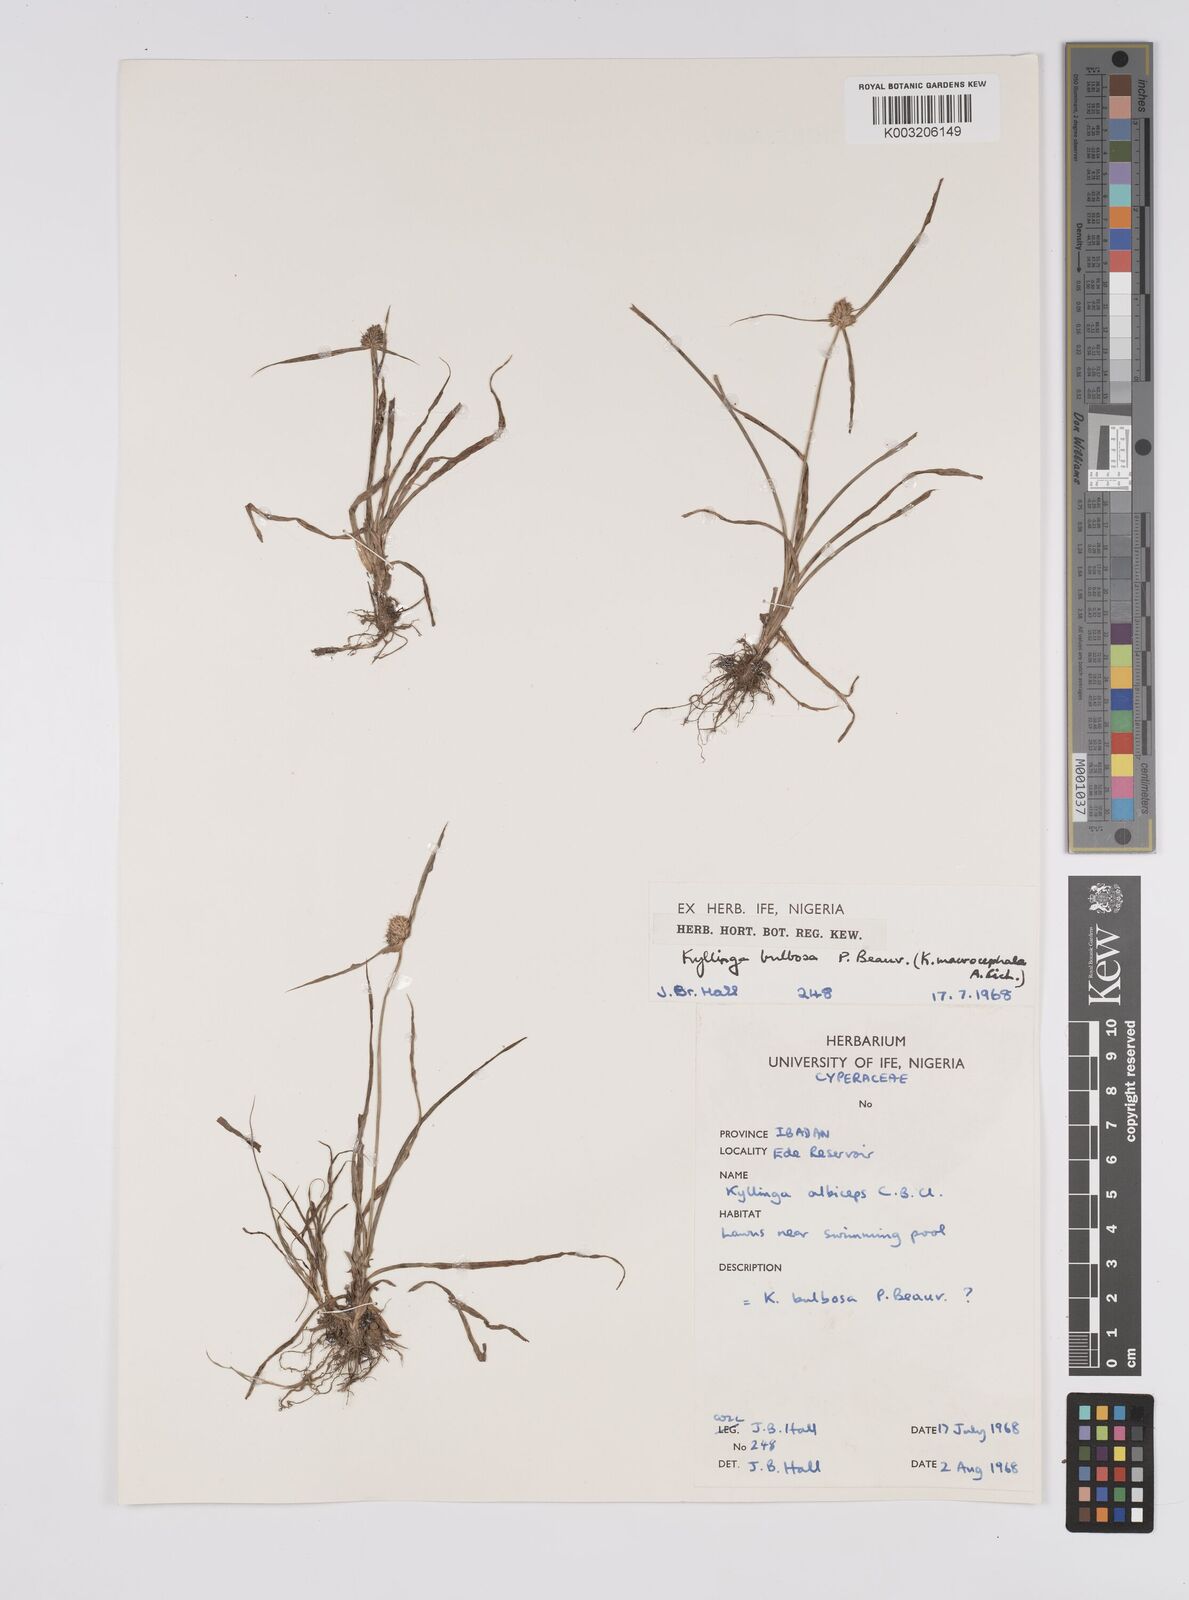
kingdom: Plantae
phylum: Tracheophyta
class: Liliopsida
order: Poales
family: Cyperaceae
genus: Cyperus
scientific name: Cyperus
